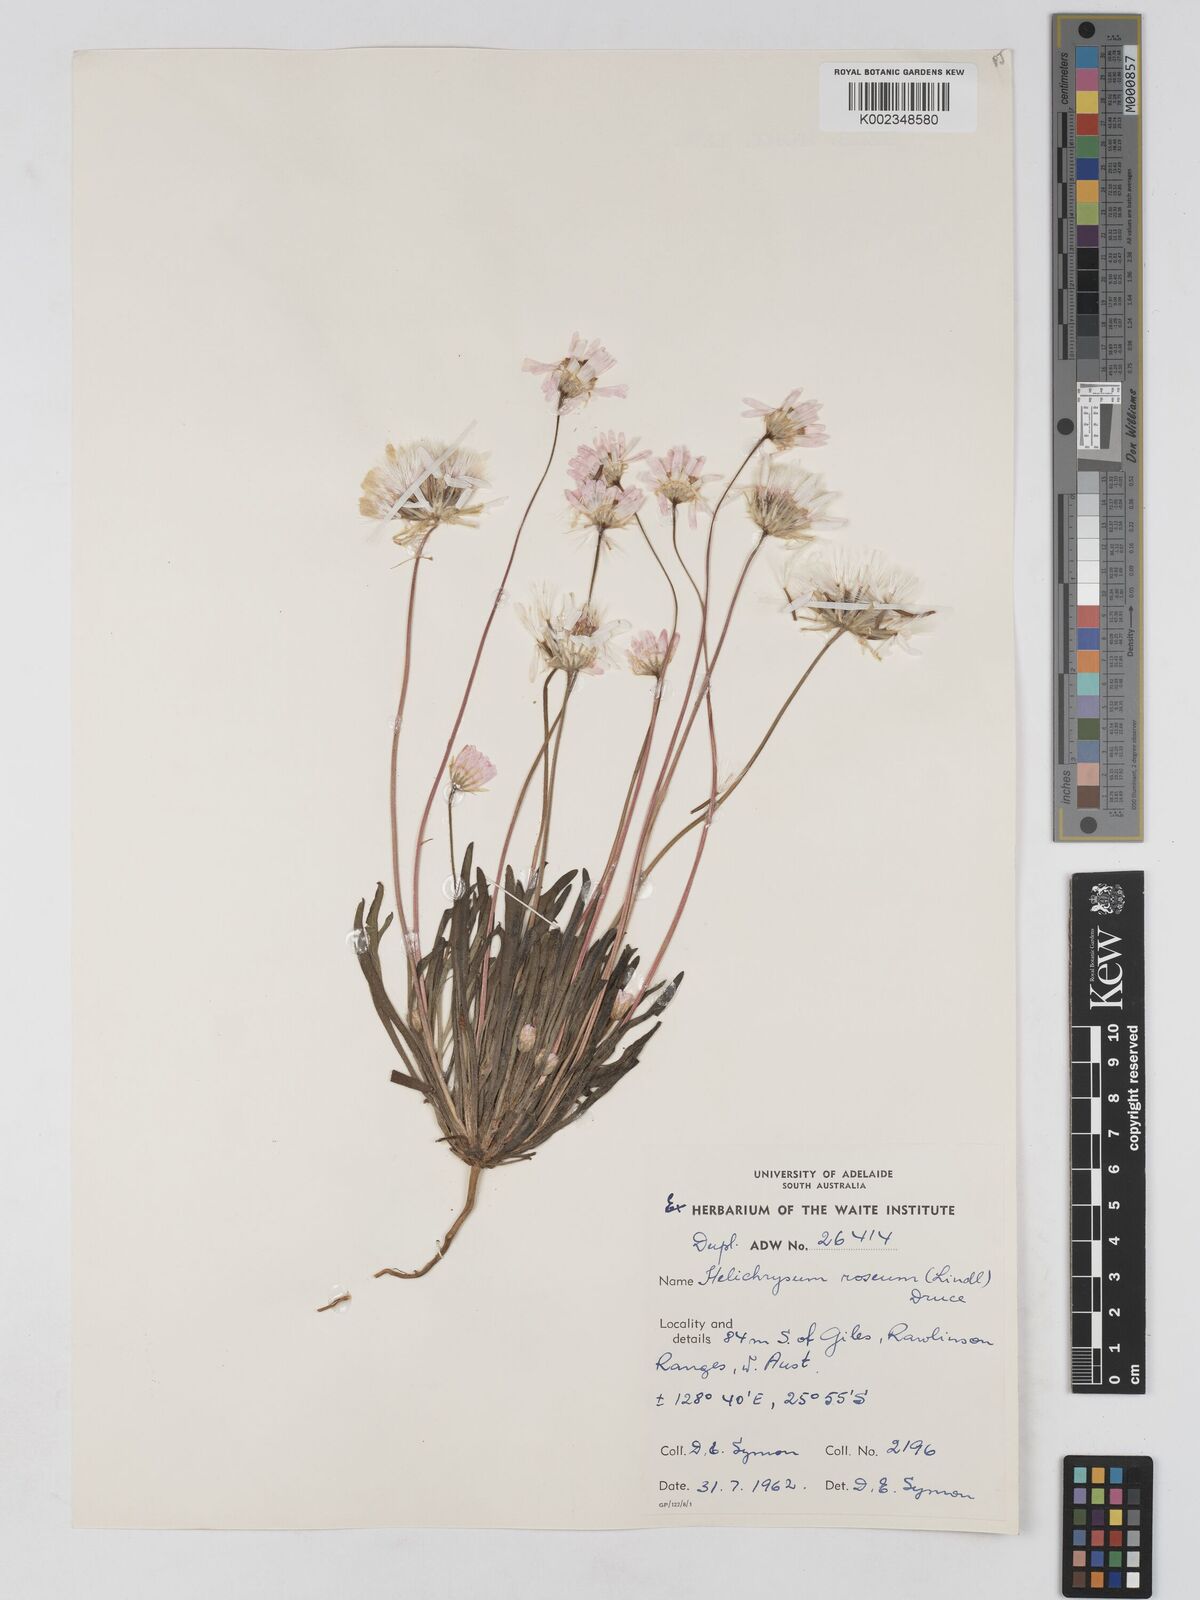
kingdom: Plantae
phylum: Tracheophyta
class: Magnoliopsida
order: Asterales
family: Asteraceae
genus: Lawrencella
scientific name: Lawrencella rosea
